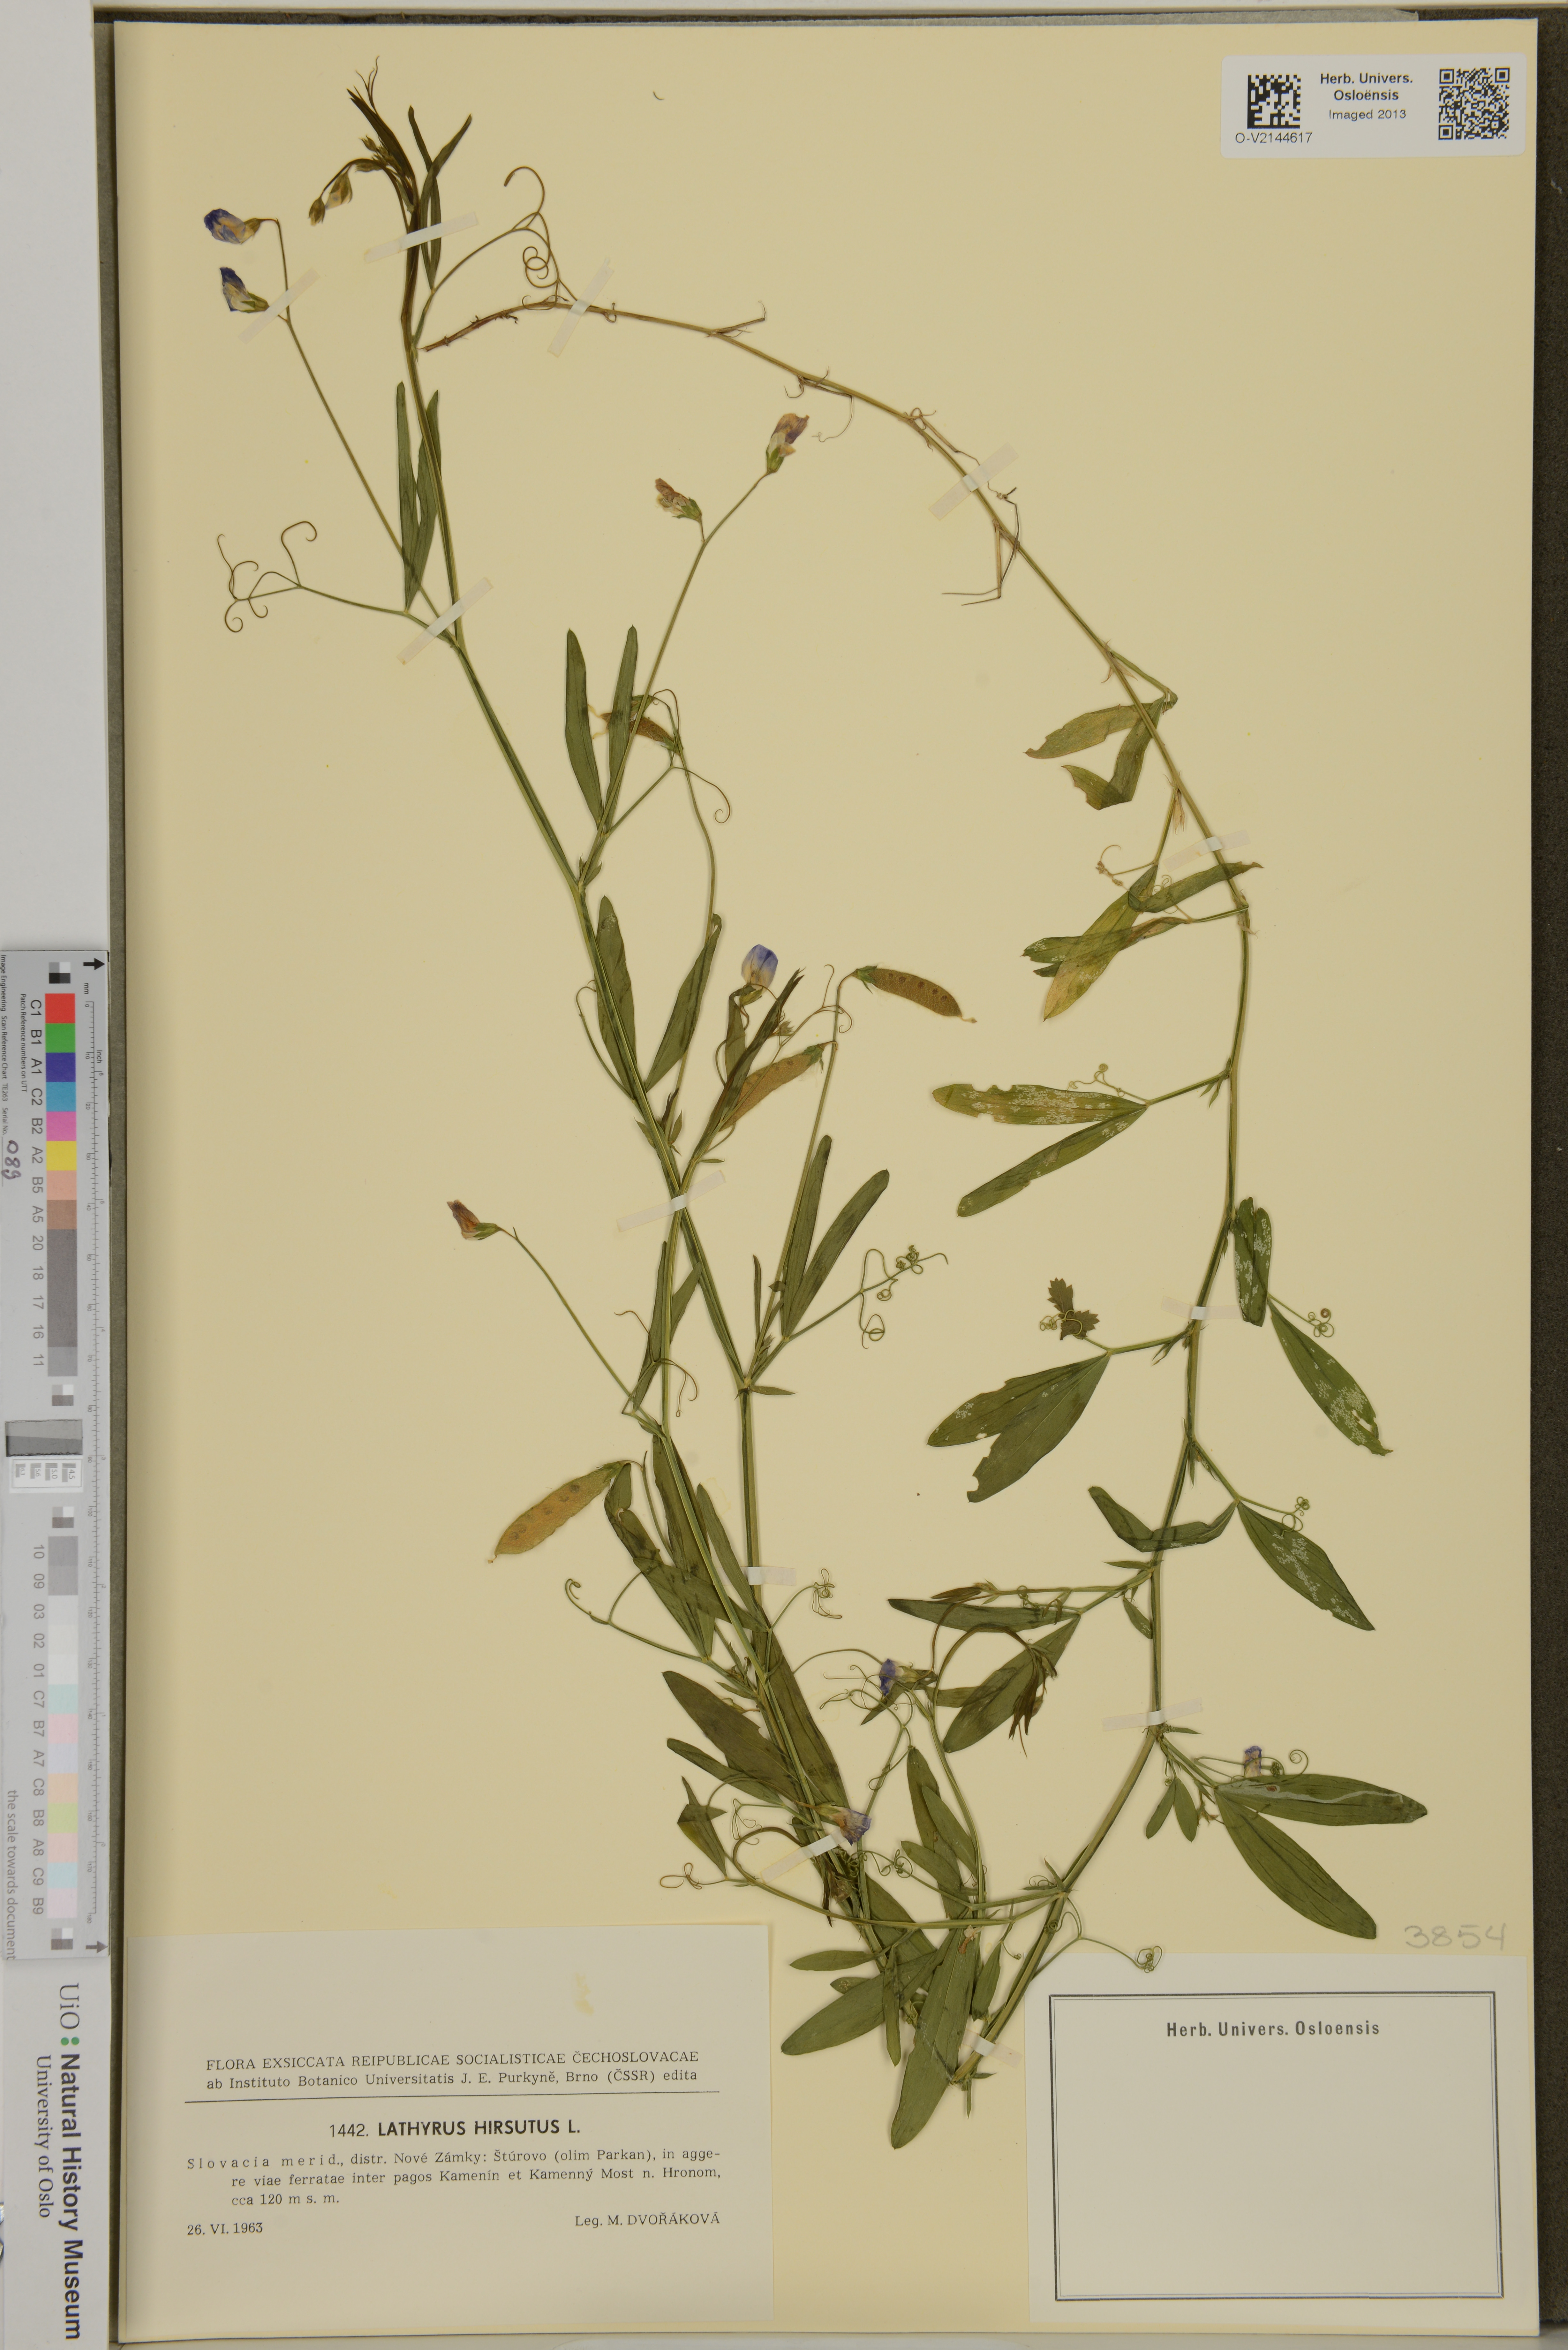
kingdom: Plantae
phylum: Tracheophyta
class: Magnoliopsida
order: Fabales
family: Fabaceae
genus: Lathyrus
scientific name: Lathyrus hirsutus
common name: Hairy vetchling
